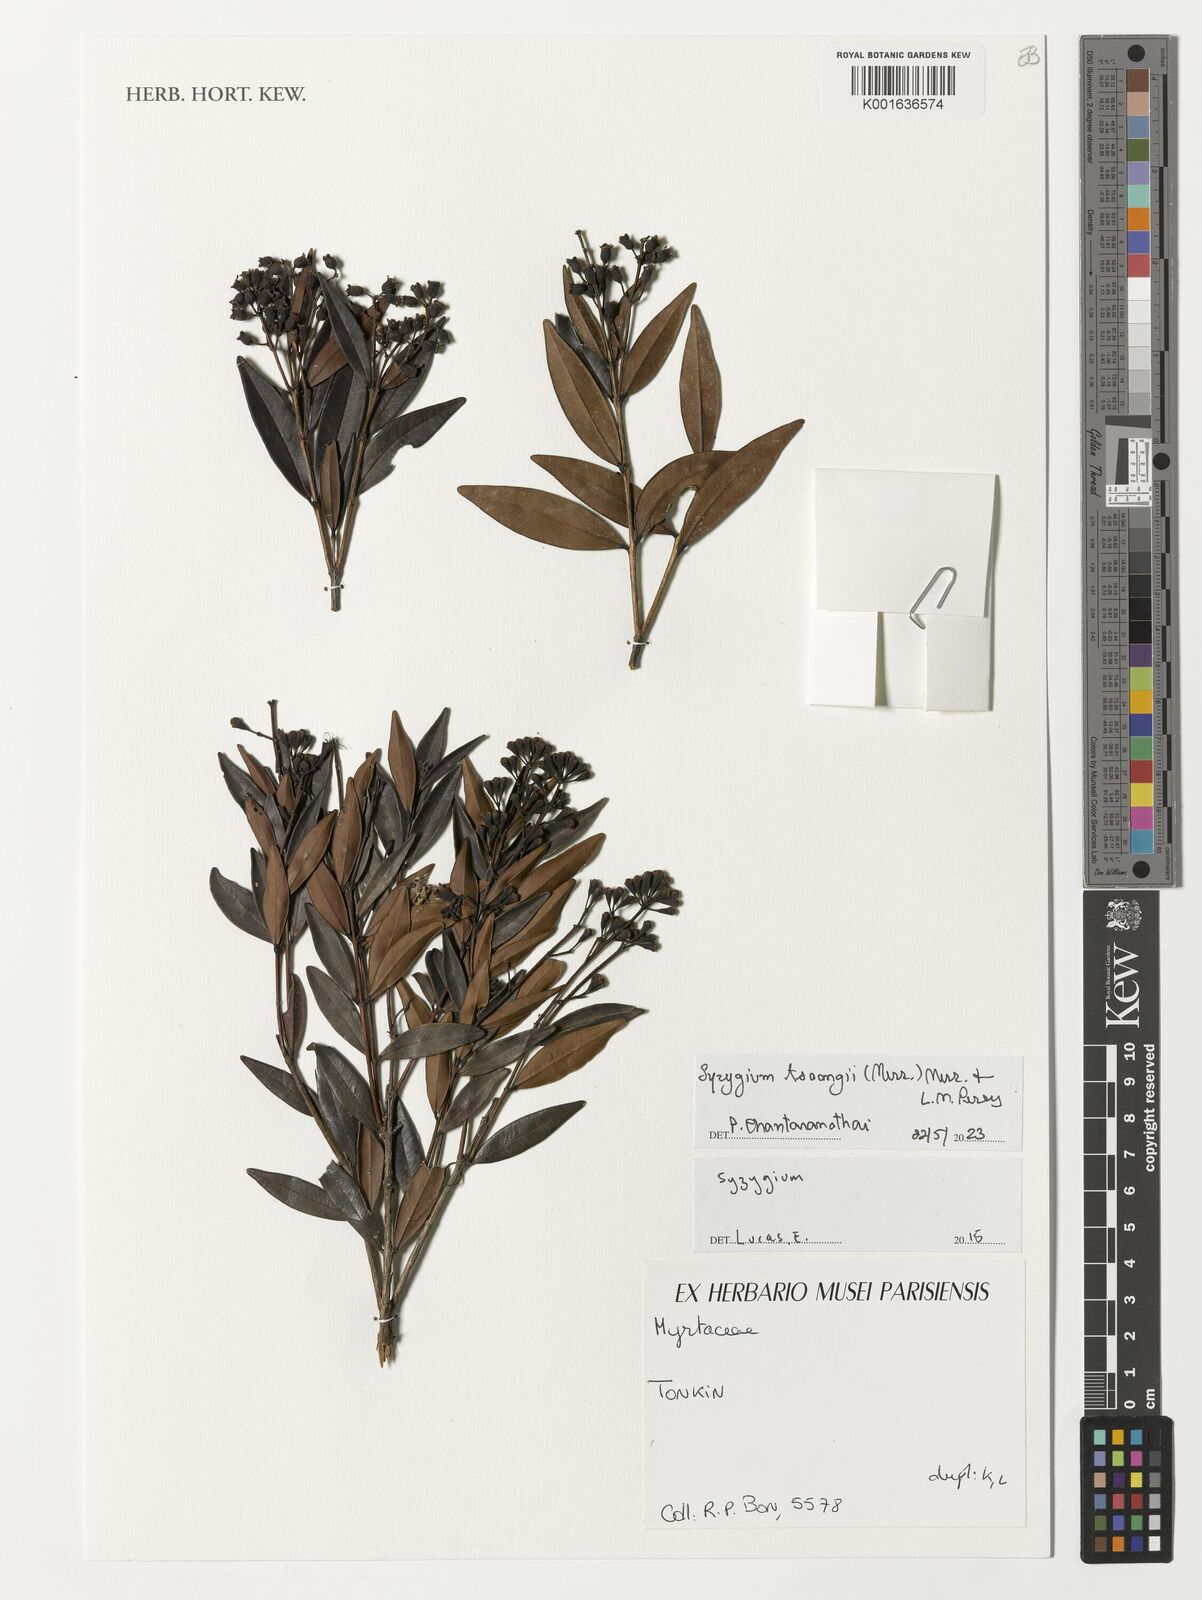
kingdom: Plantae
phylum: Tracheophyta
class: Magnoliopsida
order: Myrtales
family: Myrtaceae
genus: Syzygium
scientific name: Syzygium tsoongii
